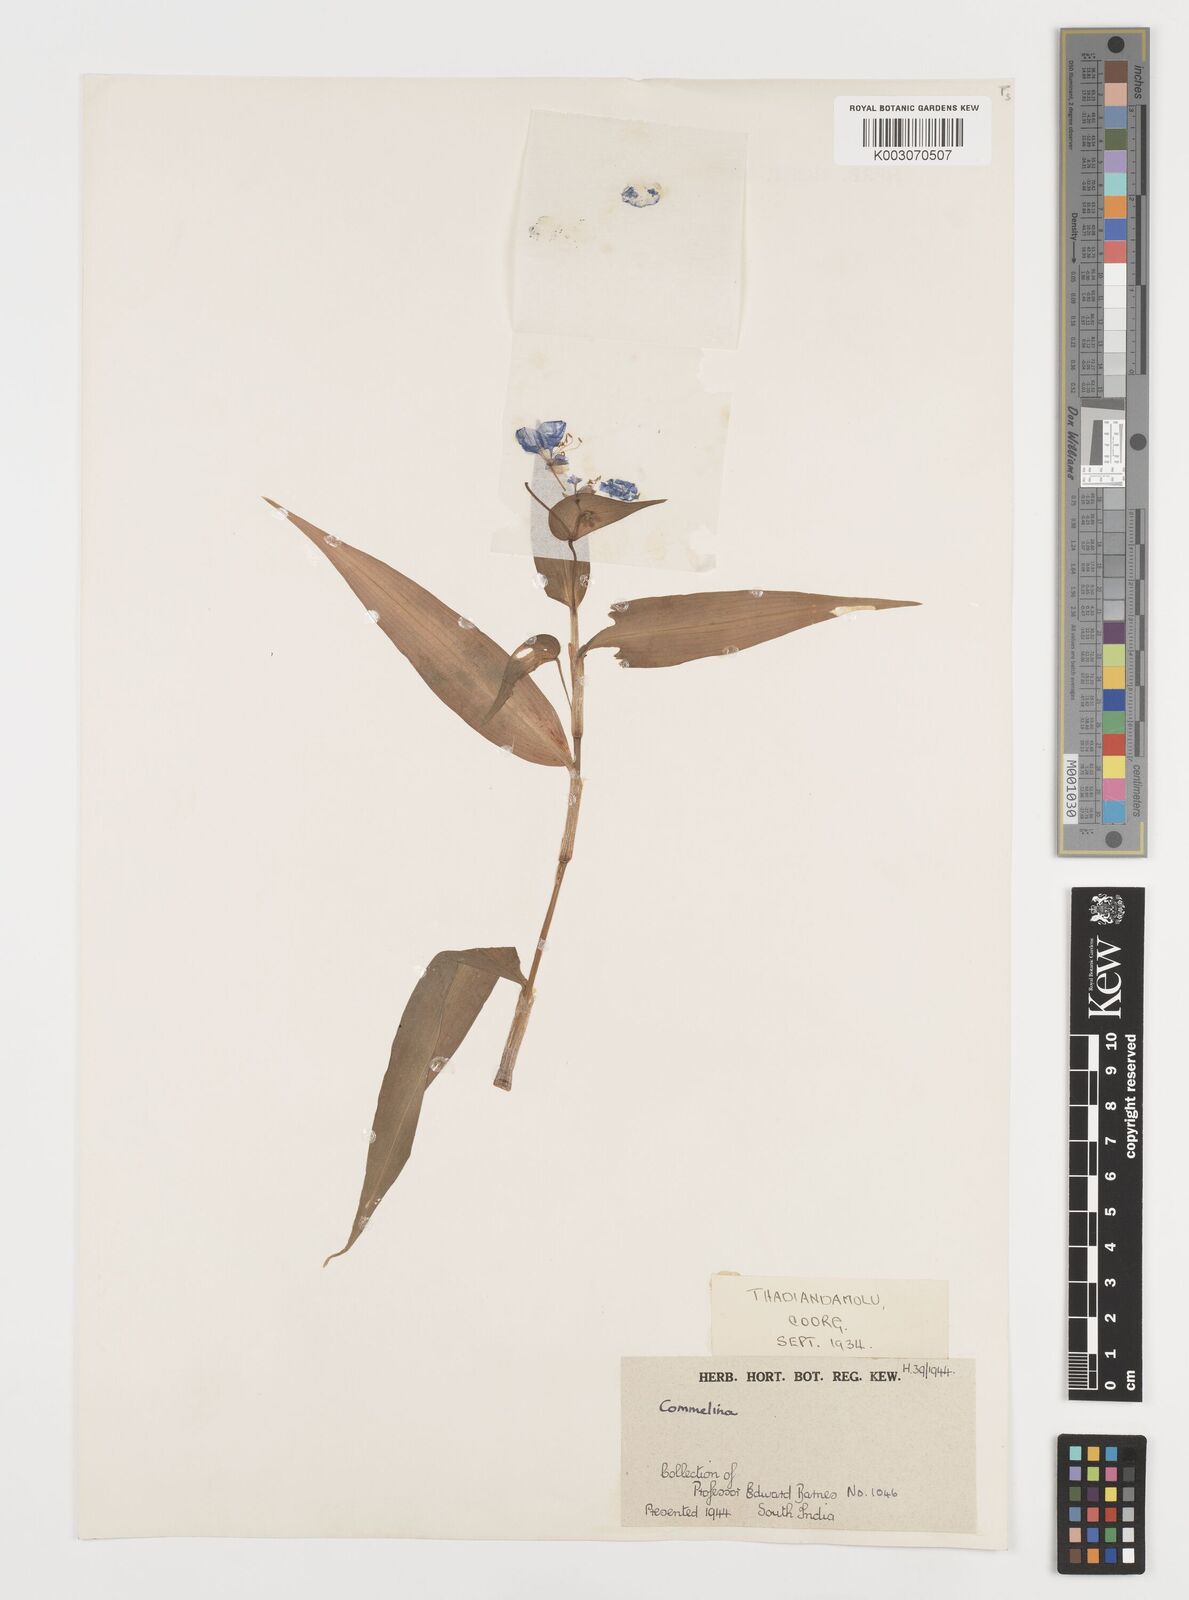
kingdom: Plantae
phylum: Tracheophyta
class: Liliopsida
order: Commelinales
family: Commelinaceae
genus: Commelina
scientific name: Commelina
